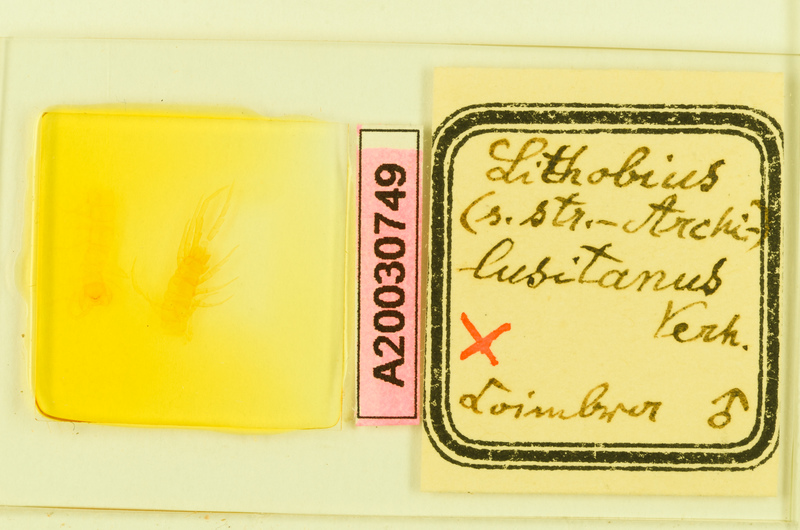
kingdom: Animalia
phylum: Arthropoda
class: Chilopoda
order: Lithobiomorpha
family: Lithobiidae
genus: Lithobius
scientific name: Lithobius lusitanus
